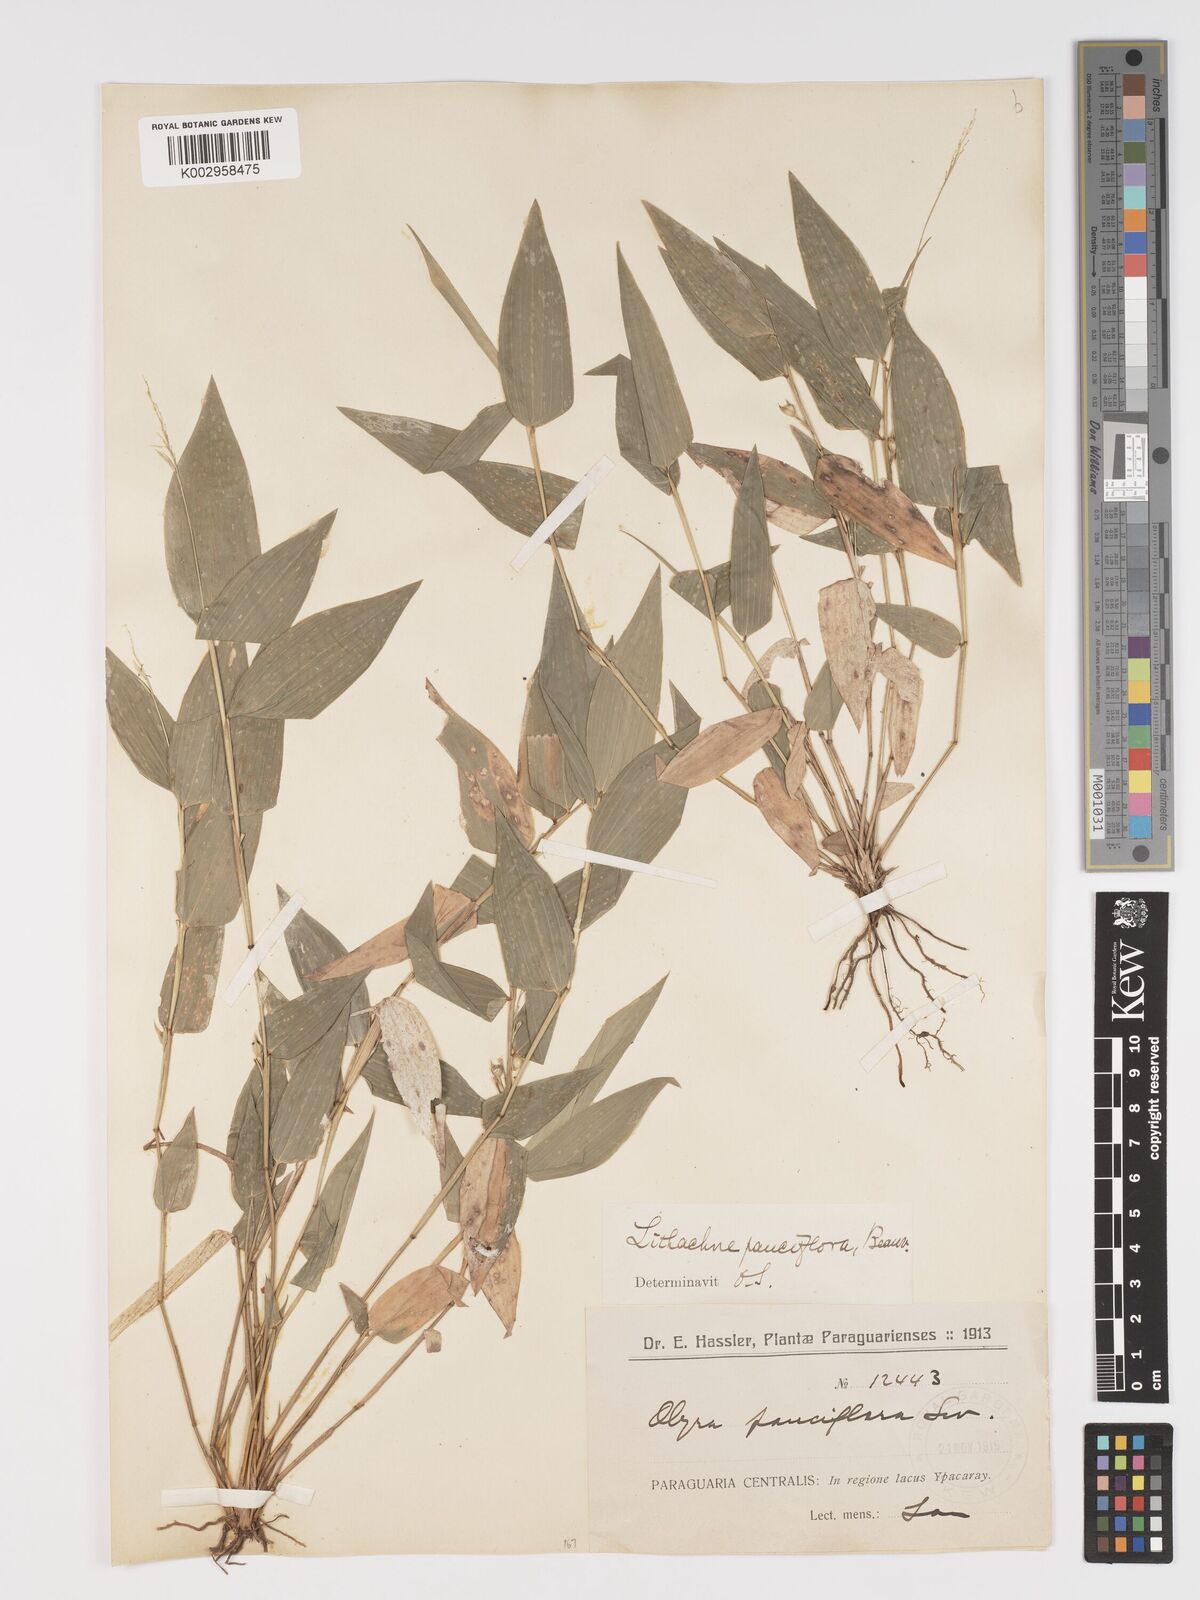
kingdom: Plantae
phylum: Tracheophyta
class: Liliopsida
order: Poales
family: Poaceae
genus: Lithachne
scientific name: Lithachne pauciflora
